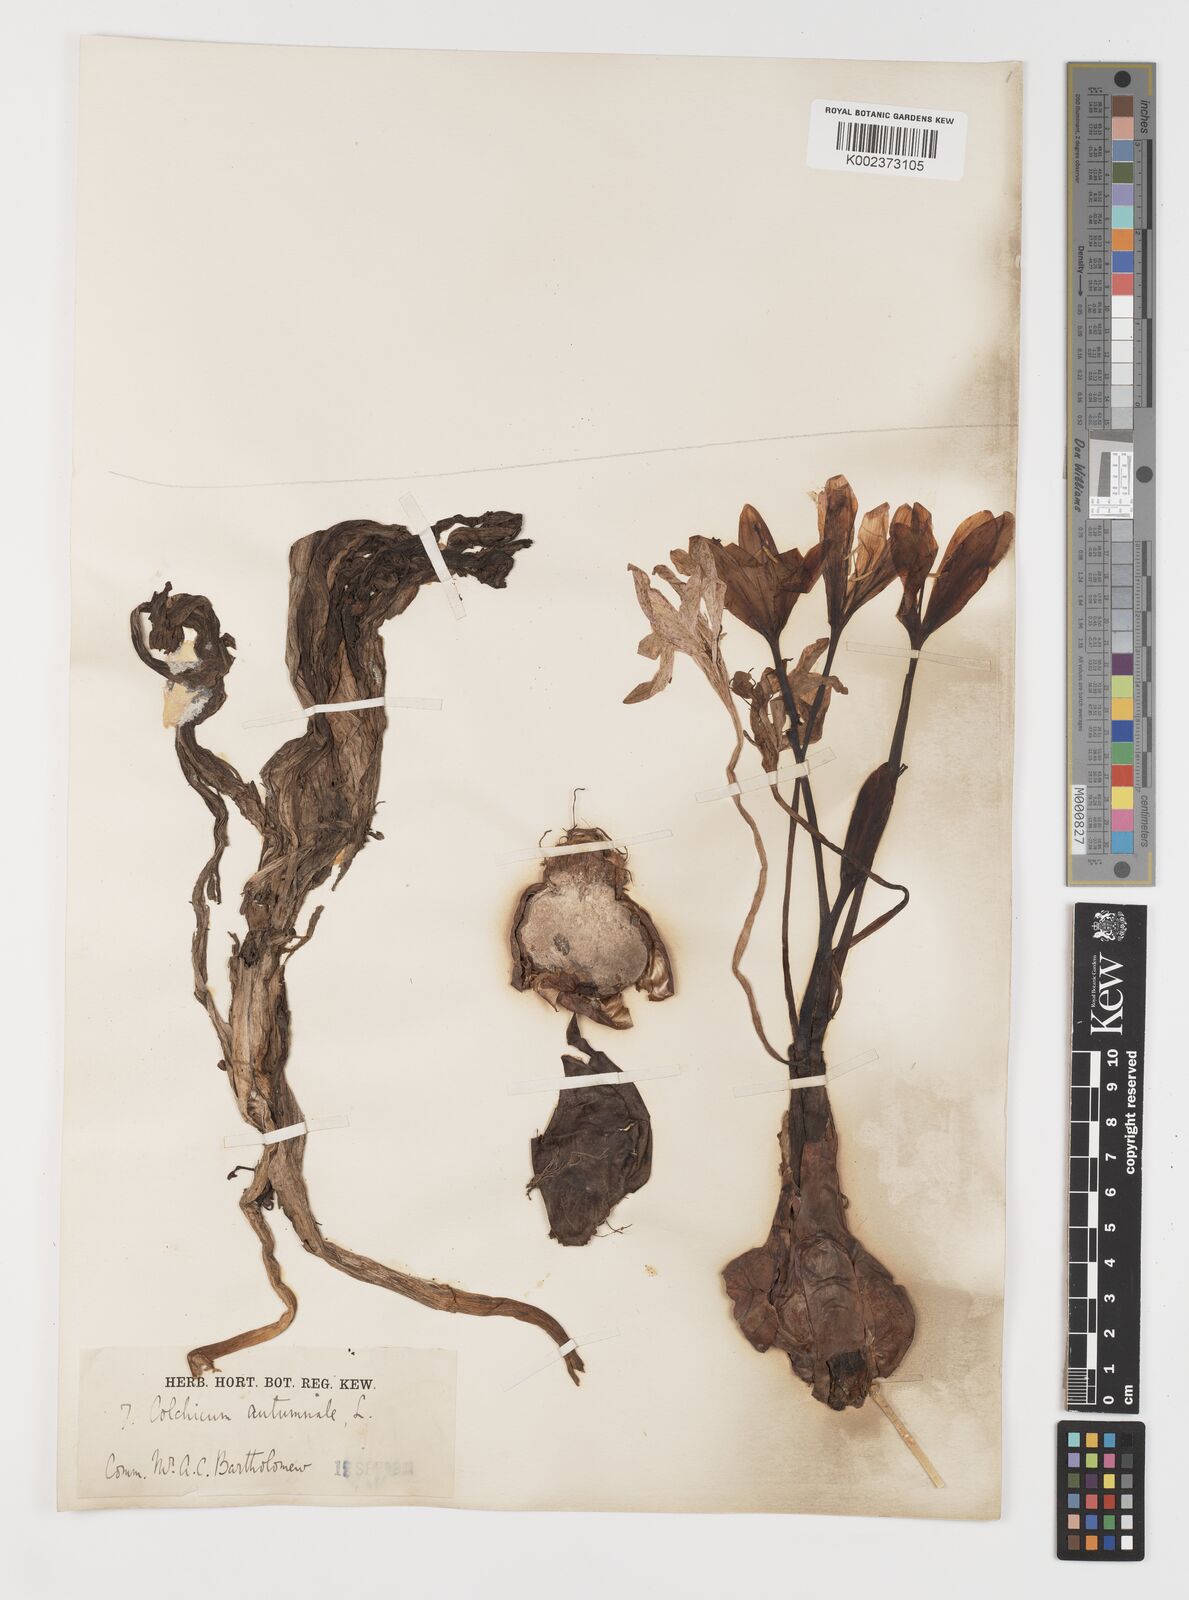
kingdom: Plantae
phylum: Tracheophyta
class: Liliopsida
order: Liliales
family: Colchicaceae
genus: Colchicum
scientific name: Colchicum autumnale
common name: Autumn crocus
